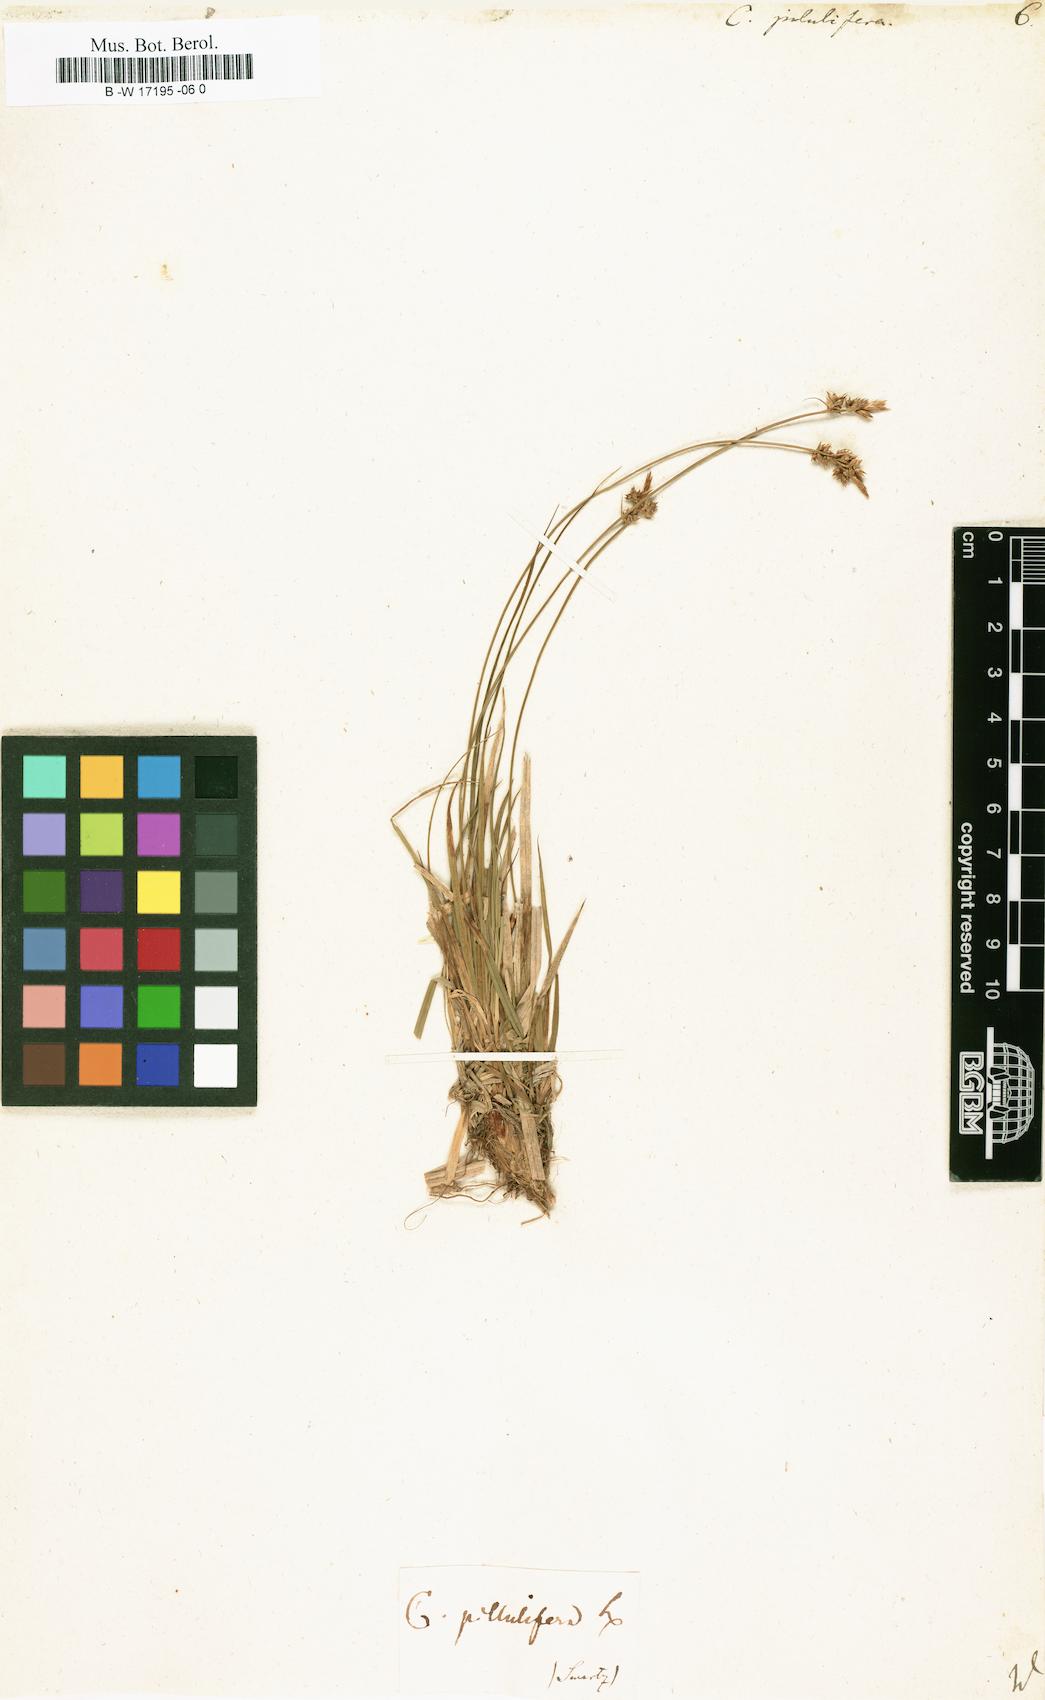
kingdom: Plantae
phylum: Tracheophyta
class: Liliopsida
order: Poales
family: Cyperaceae
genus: Carex
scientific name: Carex pilulifera
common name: Pill sedge
